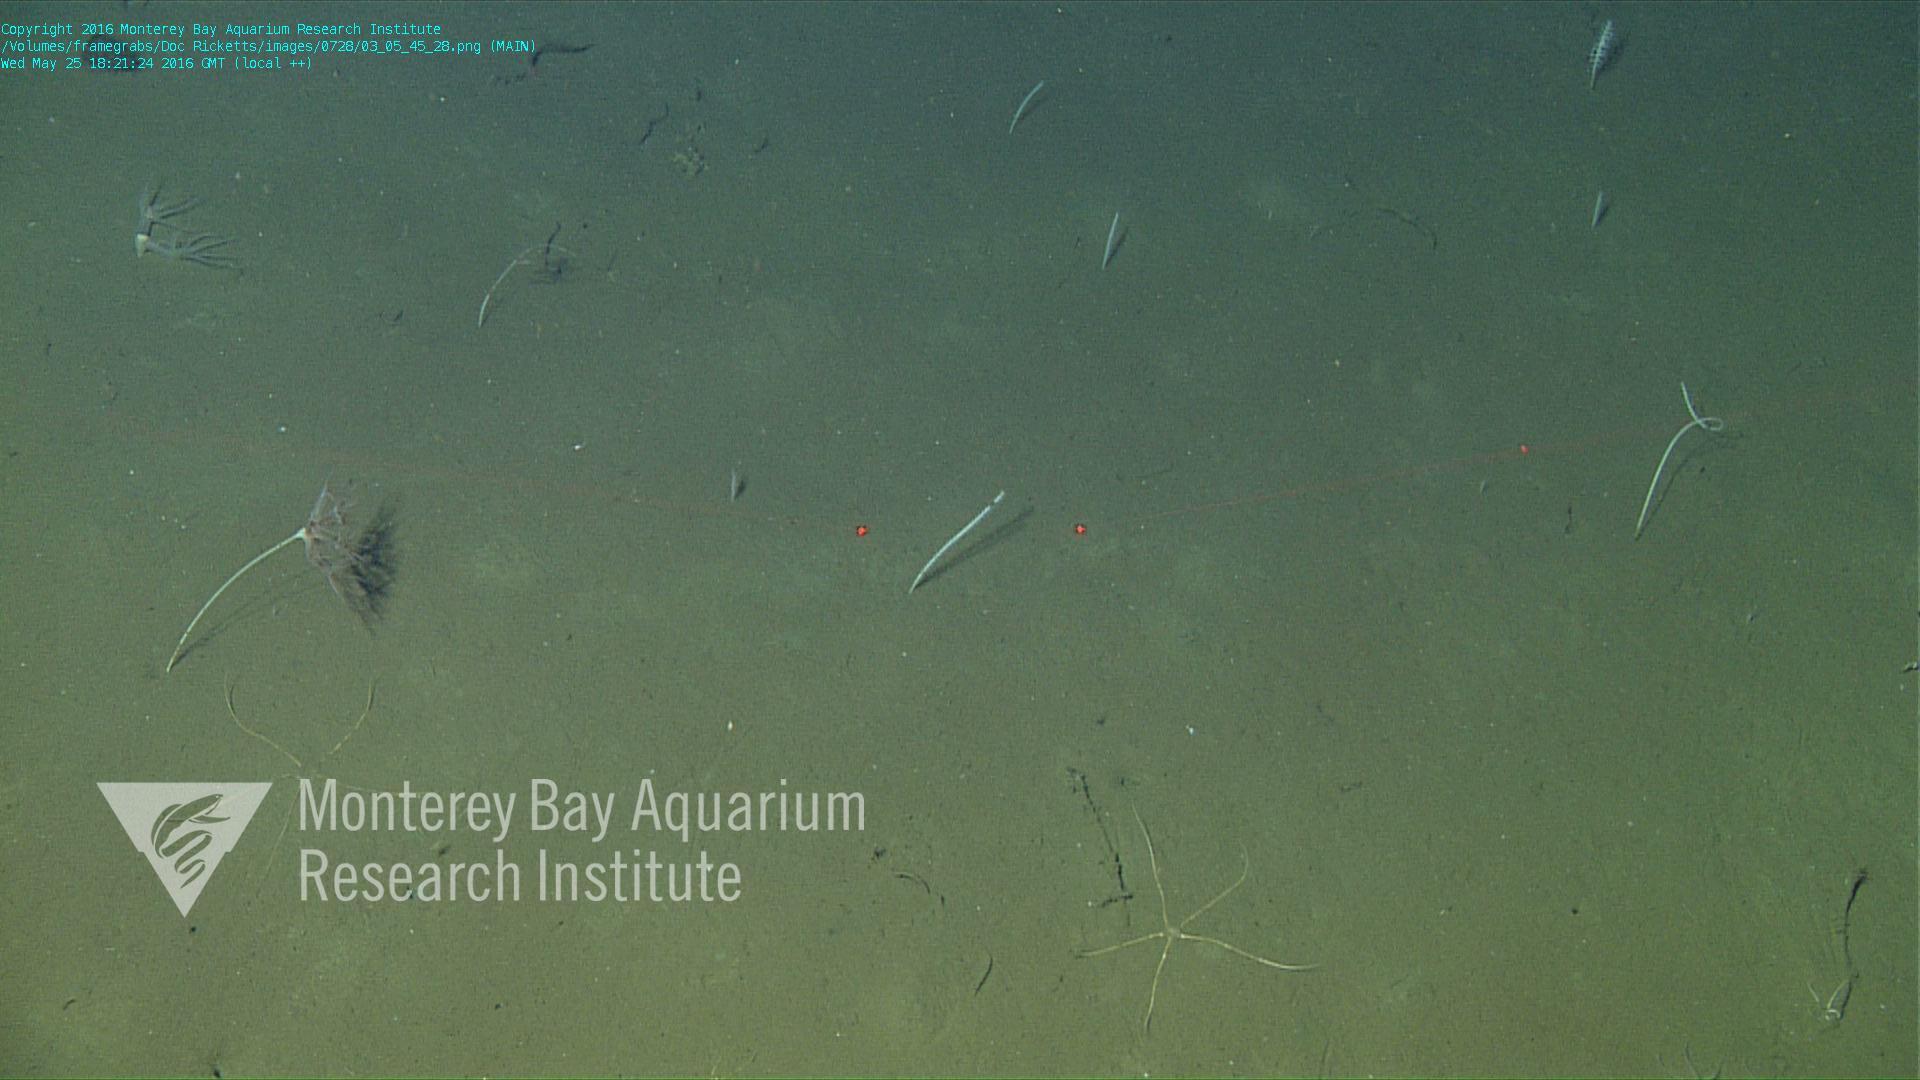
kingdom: Animalia
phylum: Cnidaria
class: Anthozoa
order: Scleralcyonacea
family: Umbellulidae
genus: Umbellula
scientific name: Umbellula
